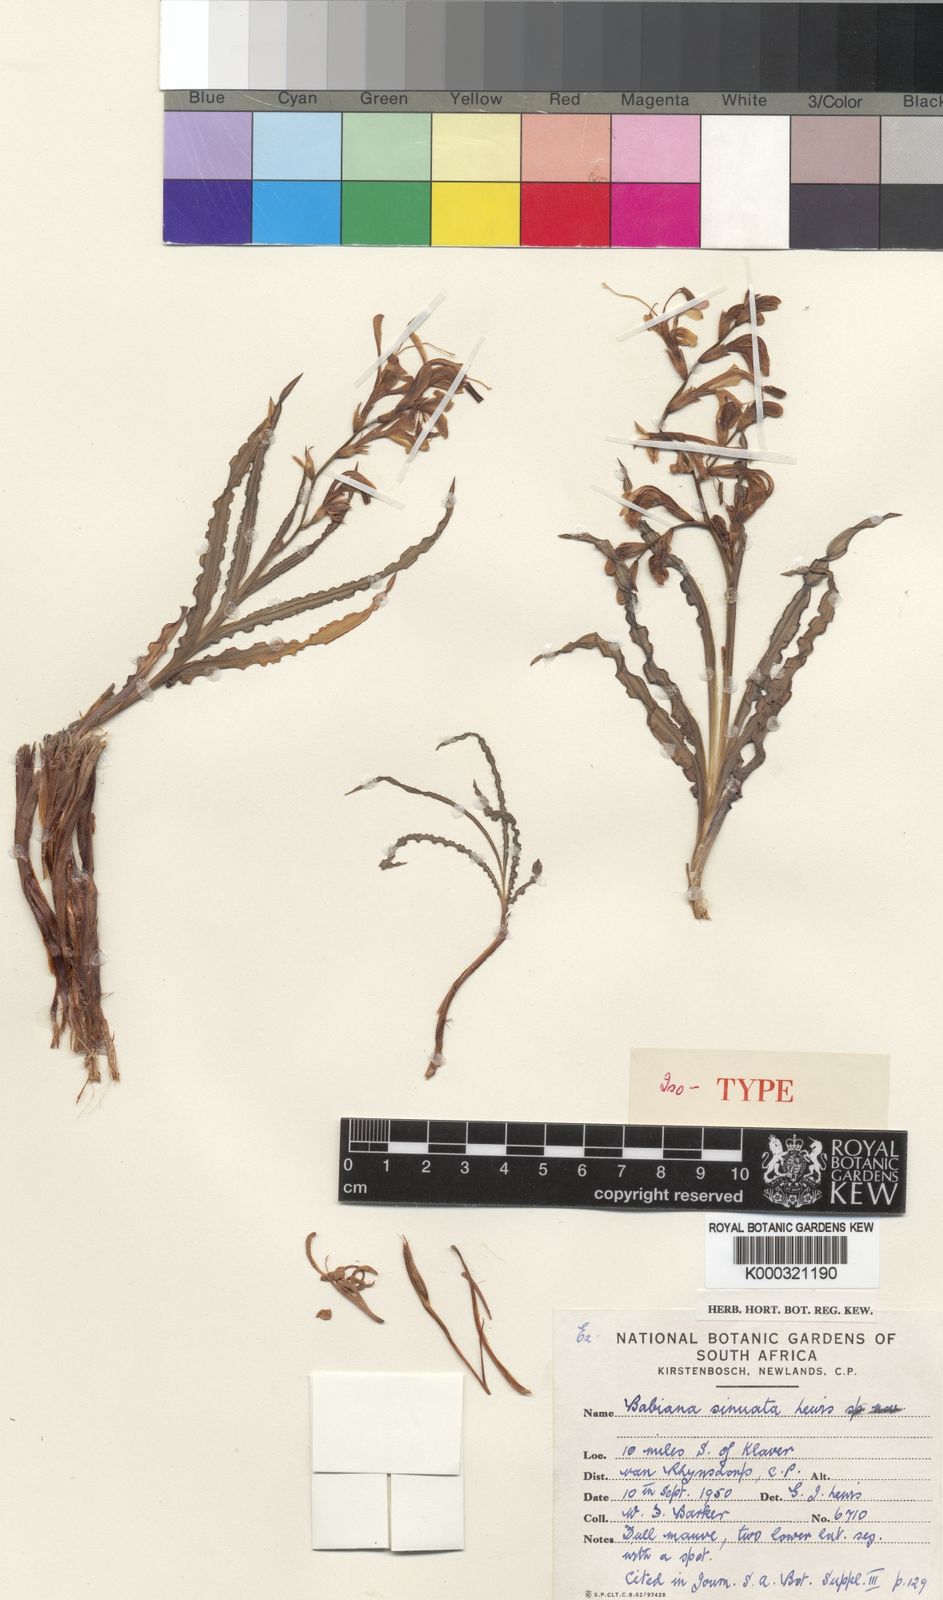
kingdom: Plantae
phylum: Tracheophyta
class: Liliopsida
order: Asparagales
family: Iridaceae
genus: Babiana
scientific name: Babiana sinuata
